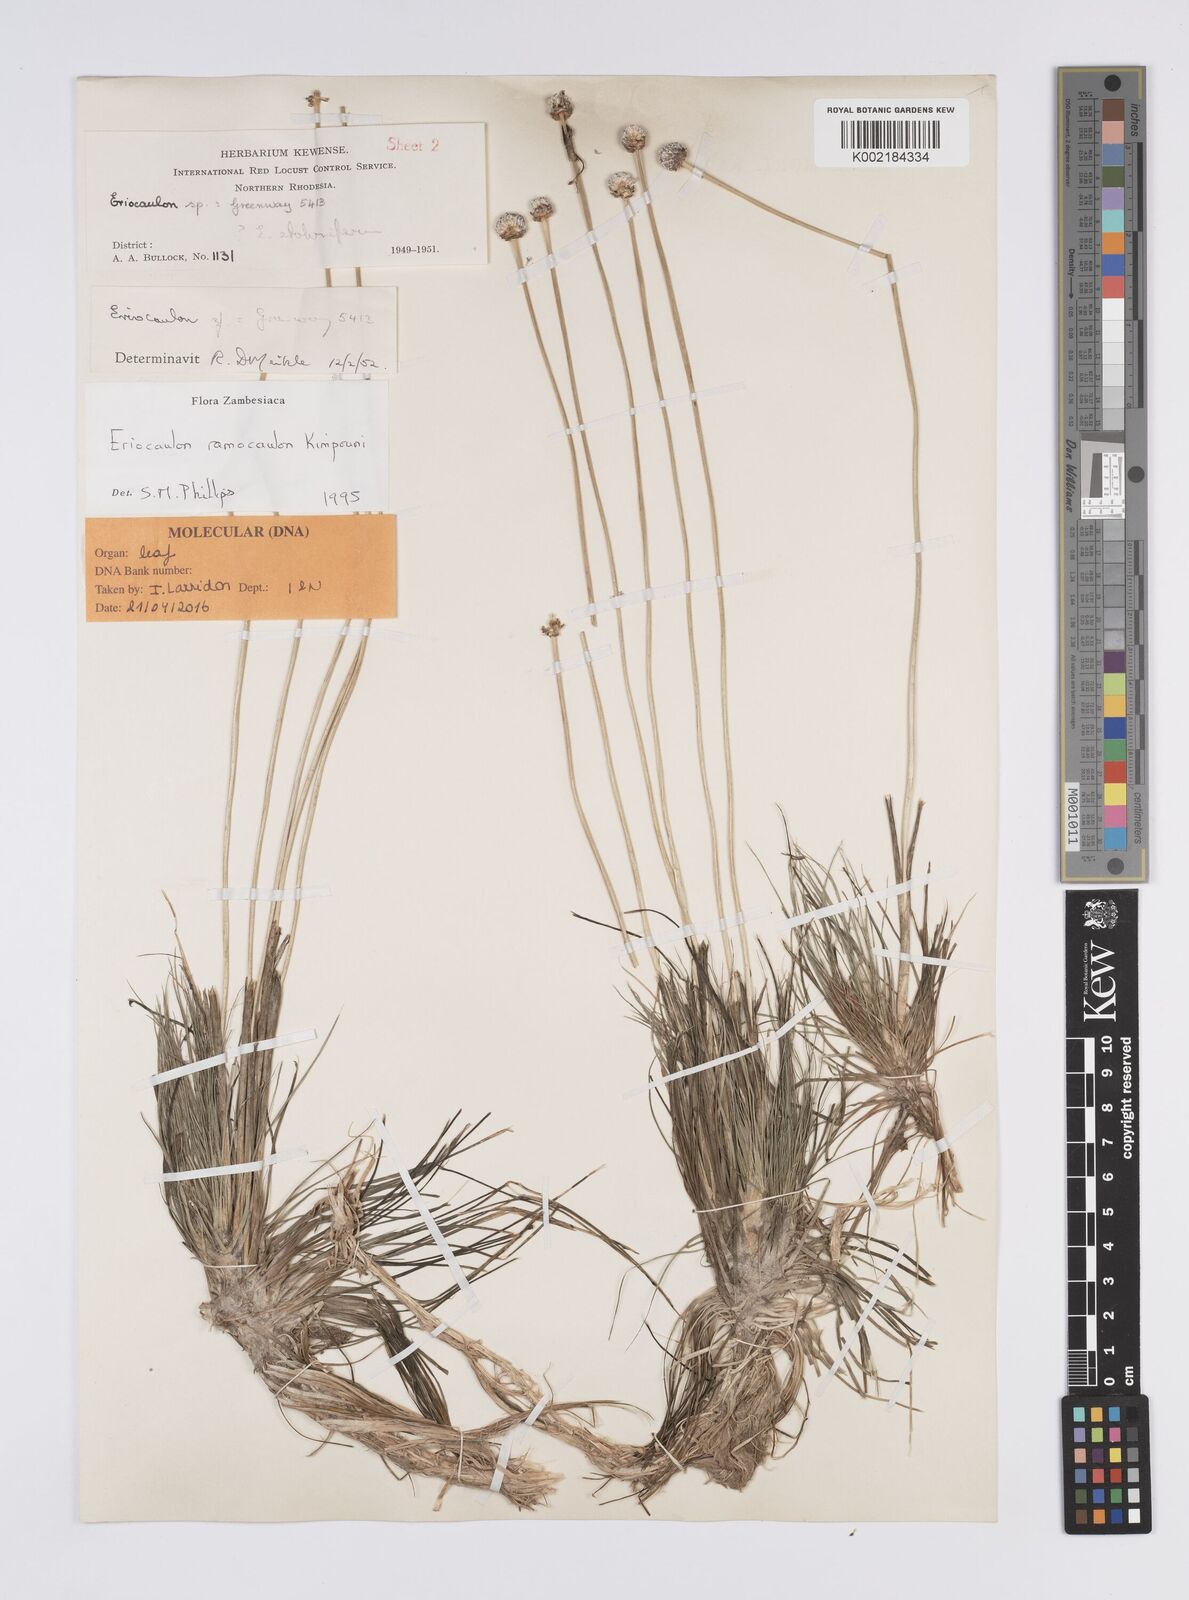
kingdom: Plantae
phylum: Tracheophyta
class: Liliopsida
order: Poales
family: Eriocaulaceae
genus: Eriocaulon
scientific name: Eriocaulon ramocaulon
